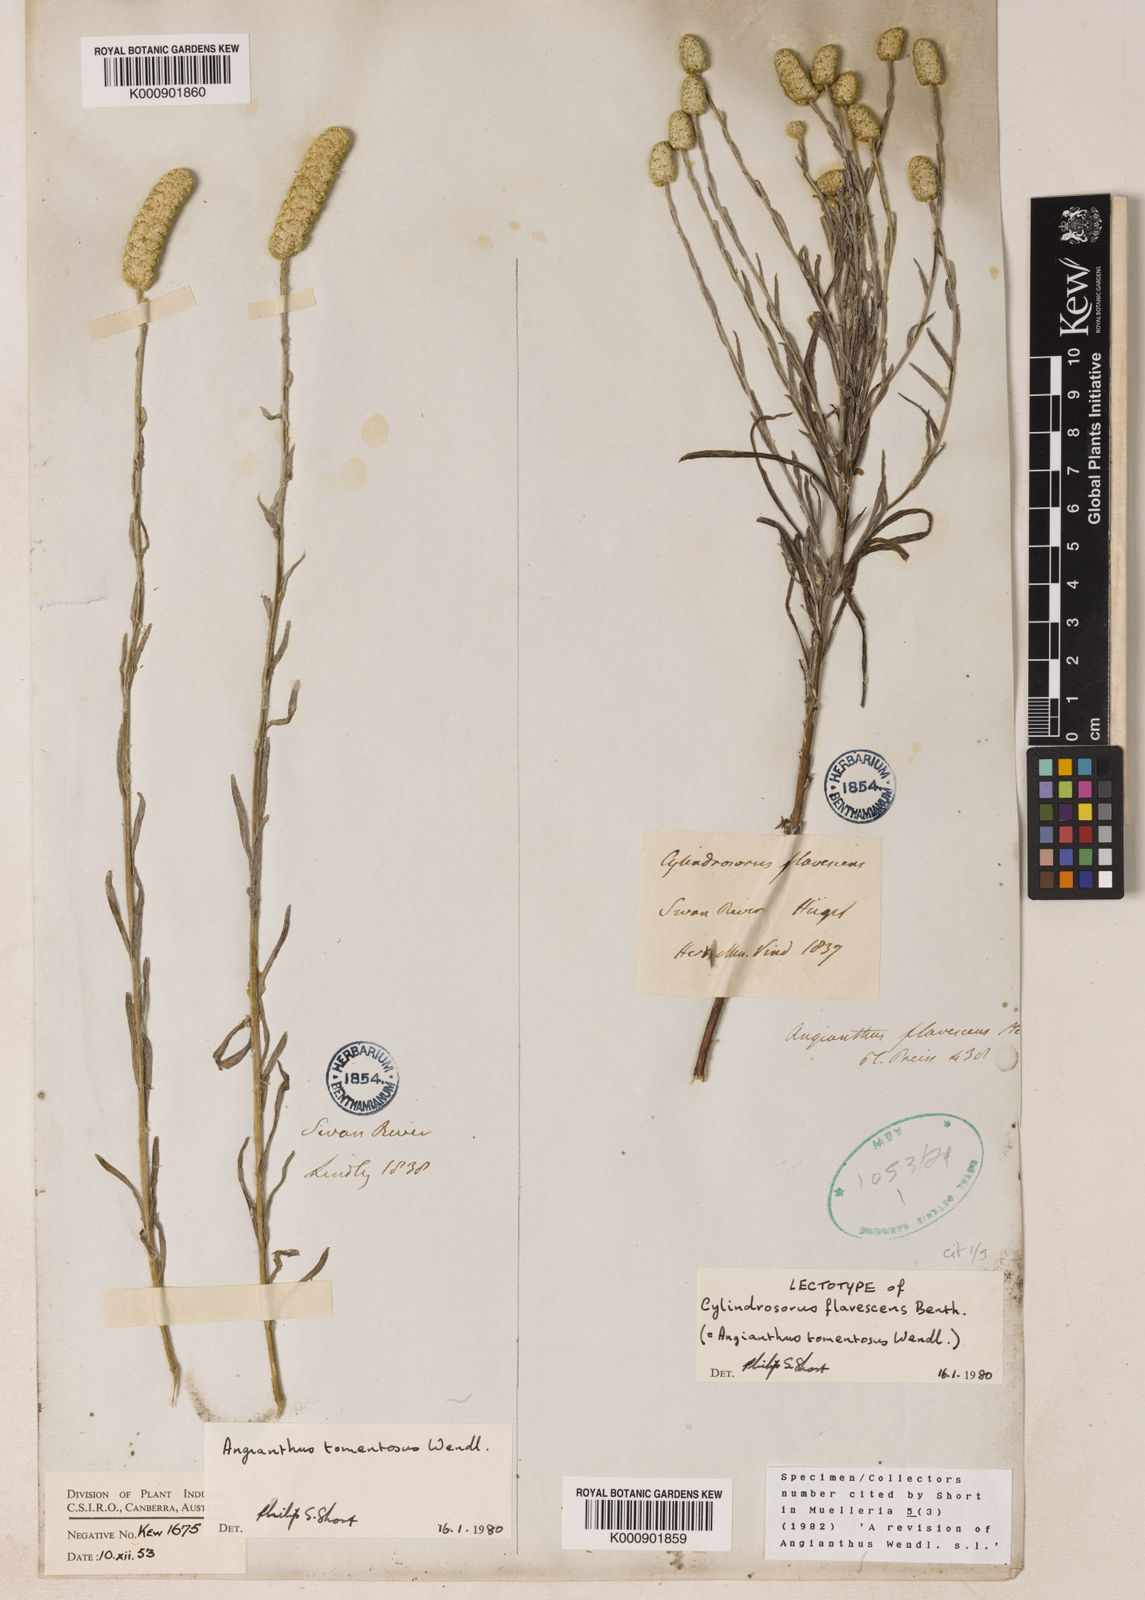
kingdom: Plantae
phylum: Tracheophyta
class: Magnoliopsida
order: Asterales
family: Asteraceae
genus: Siloxerus
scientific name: Siloxerus tomentosus
